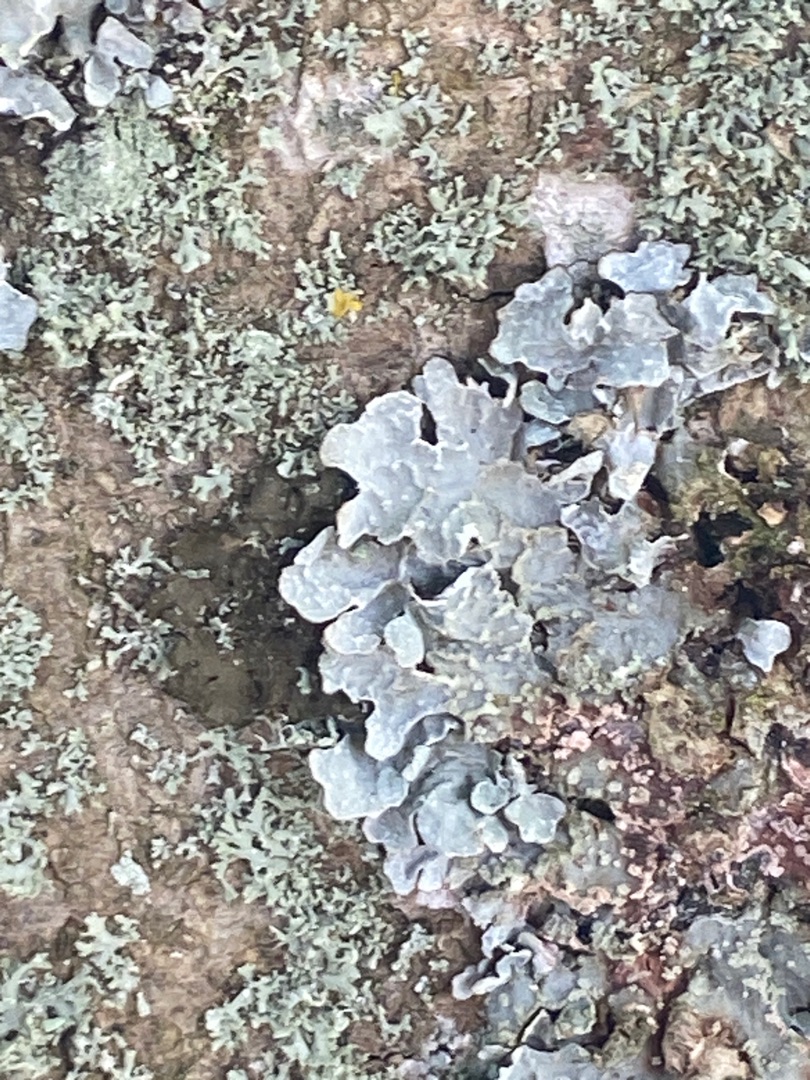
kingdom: Fungi
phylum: Ascomycota
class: Lecanoromycetes
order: Lecanorales
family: Parmeliaceae
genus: Parmelia
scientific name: Parmelia sulcata
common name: Rynket skållav
